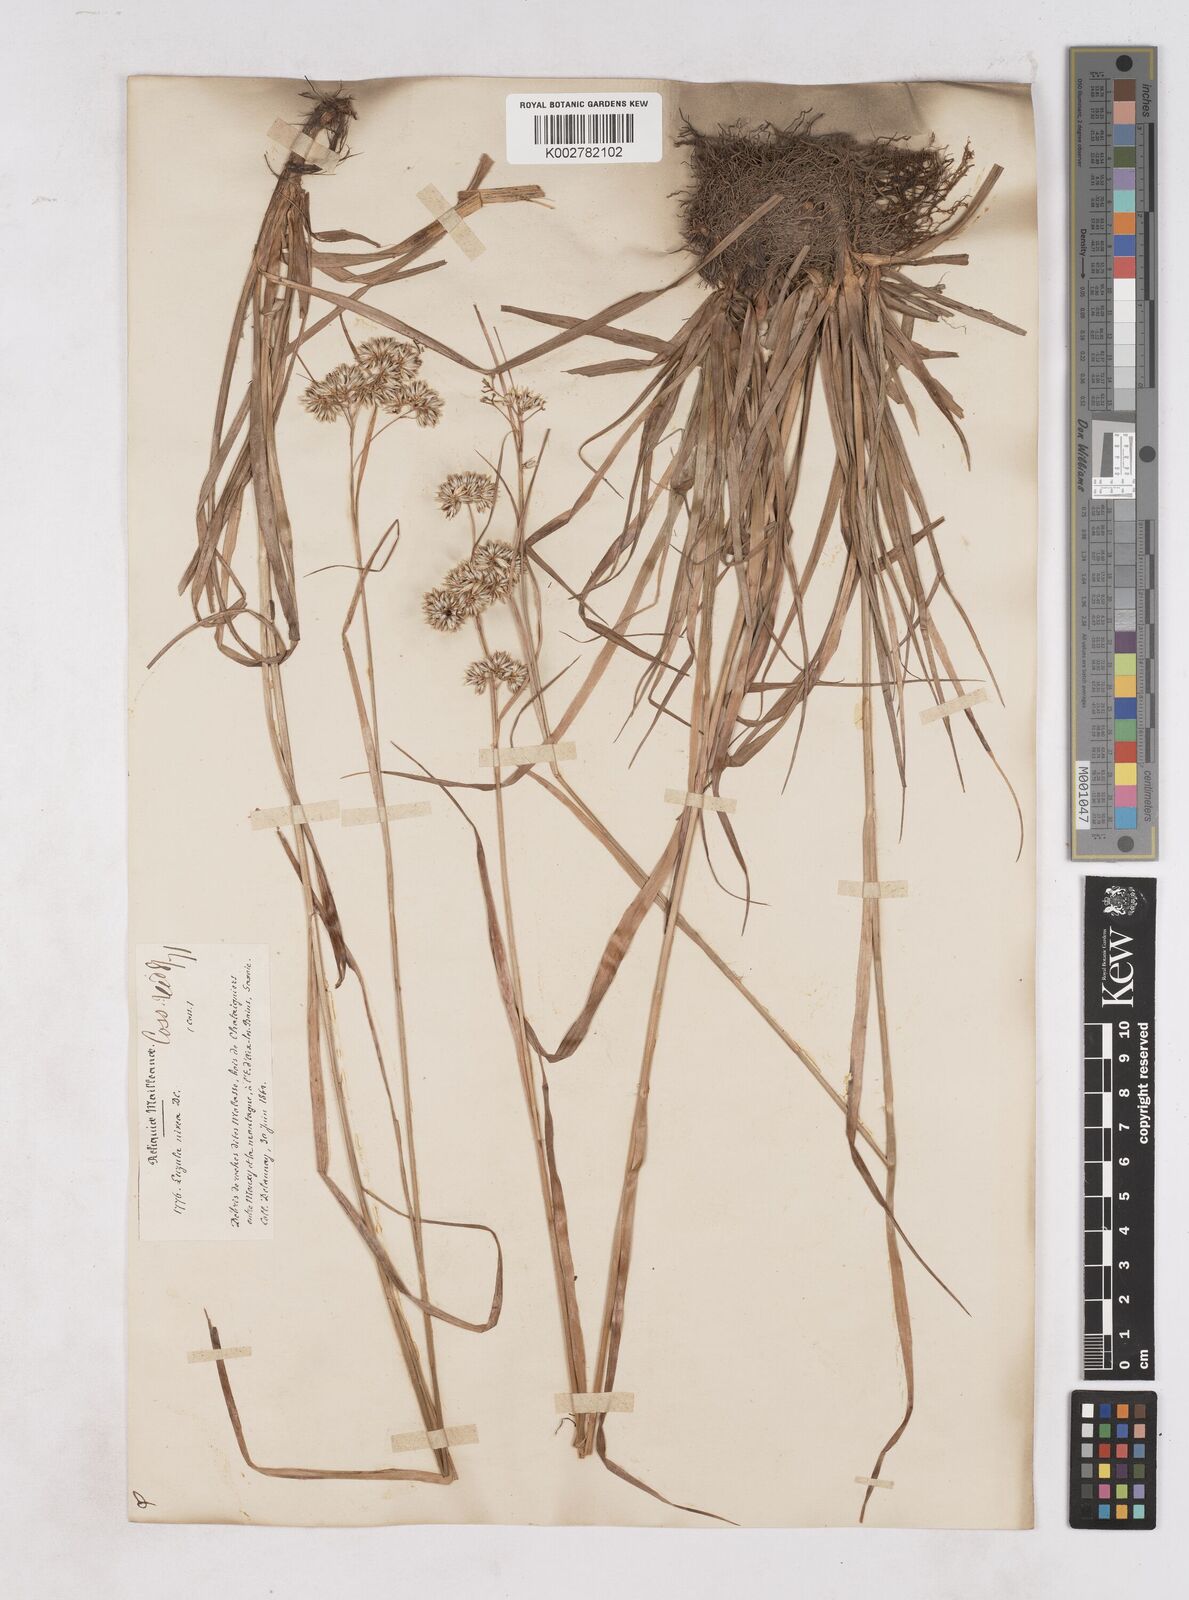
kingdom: Plantae
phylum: Tracheophyta
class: Liliopsida
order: Poales
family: Juncaceae
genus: Luzula
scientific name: Luzula nivea
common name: Snow-white wood-rush
